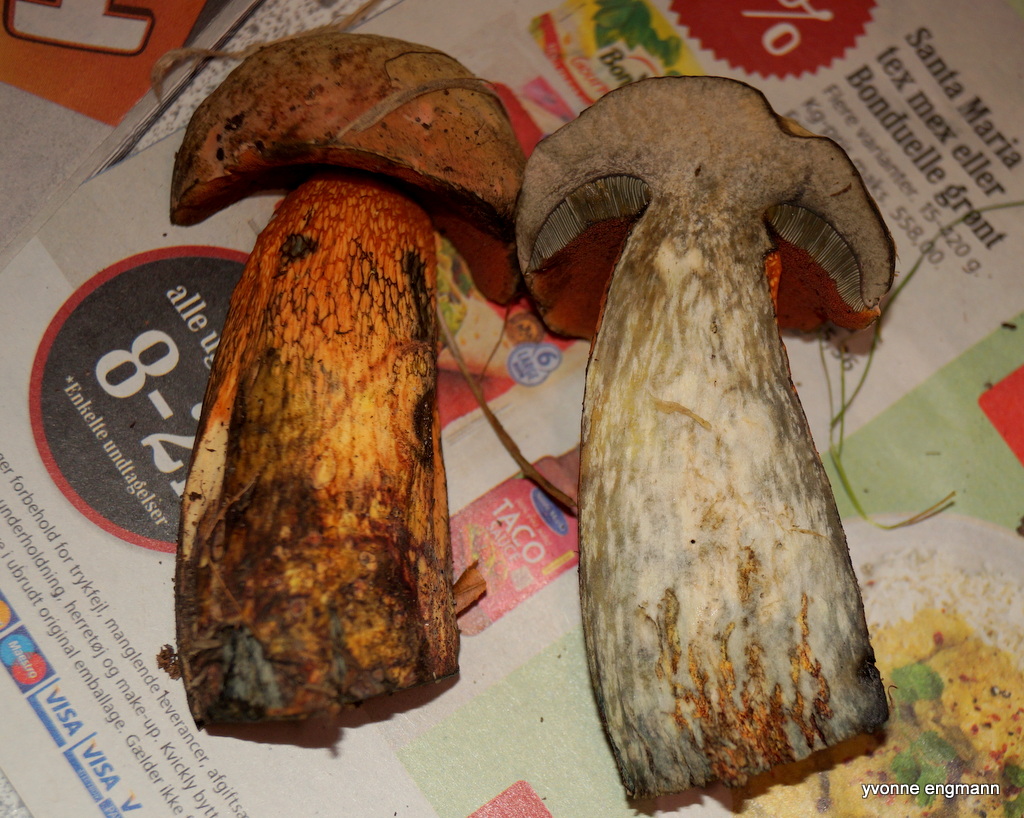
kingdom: Fungi
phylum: Basidiomycota
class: Agaricomycetes
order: Boletales
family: Boletaceae
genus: Suillellus
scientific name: Suillellus luridus
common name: netstokket indigorørhat
